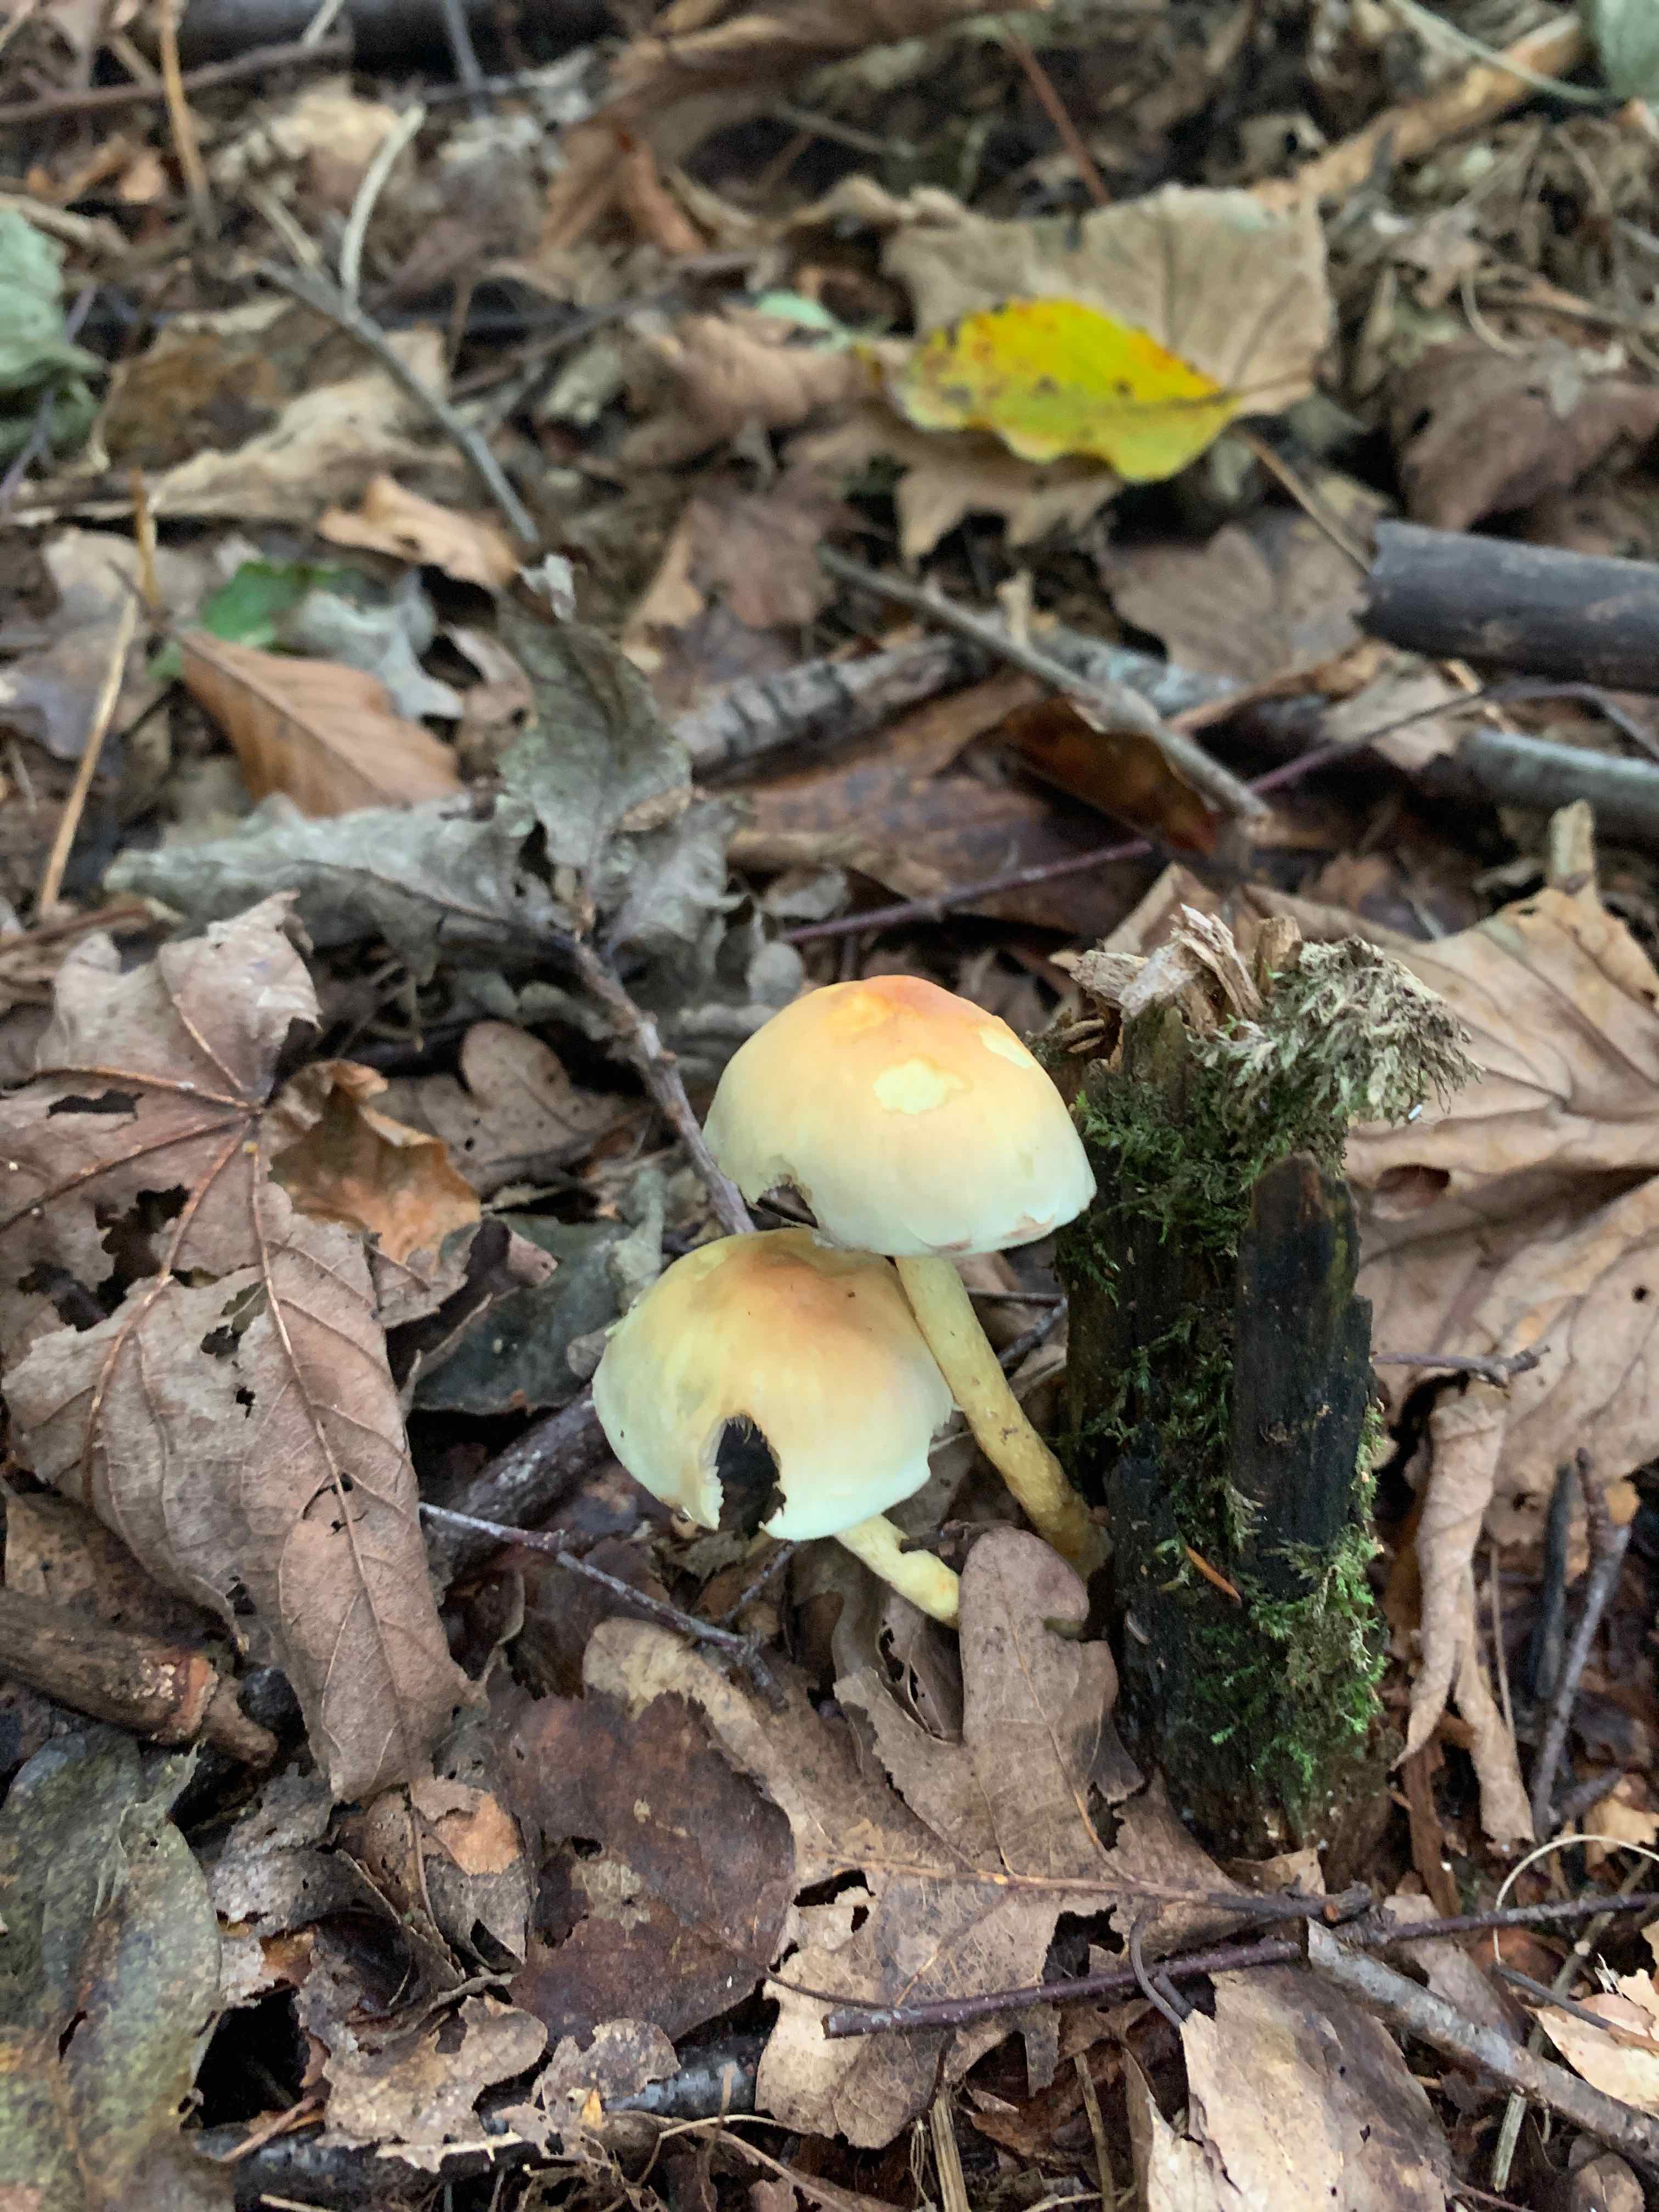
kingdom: Fungi
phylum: Basidiomycota
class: Agaricomycetes
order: Agaricales
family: Strophariaceae
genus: Hypholoma
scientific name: Hypholoma fasciculare
